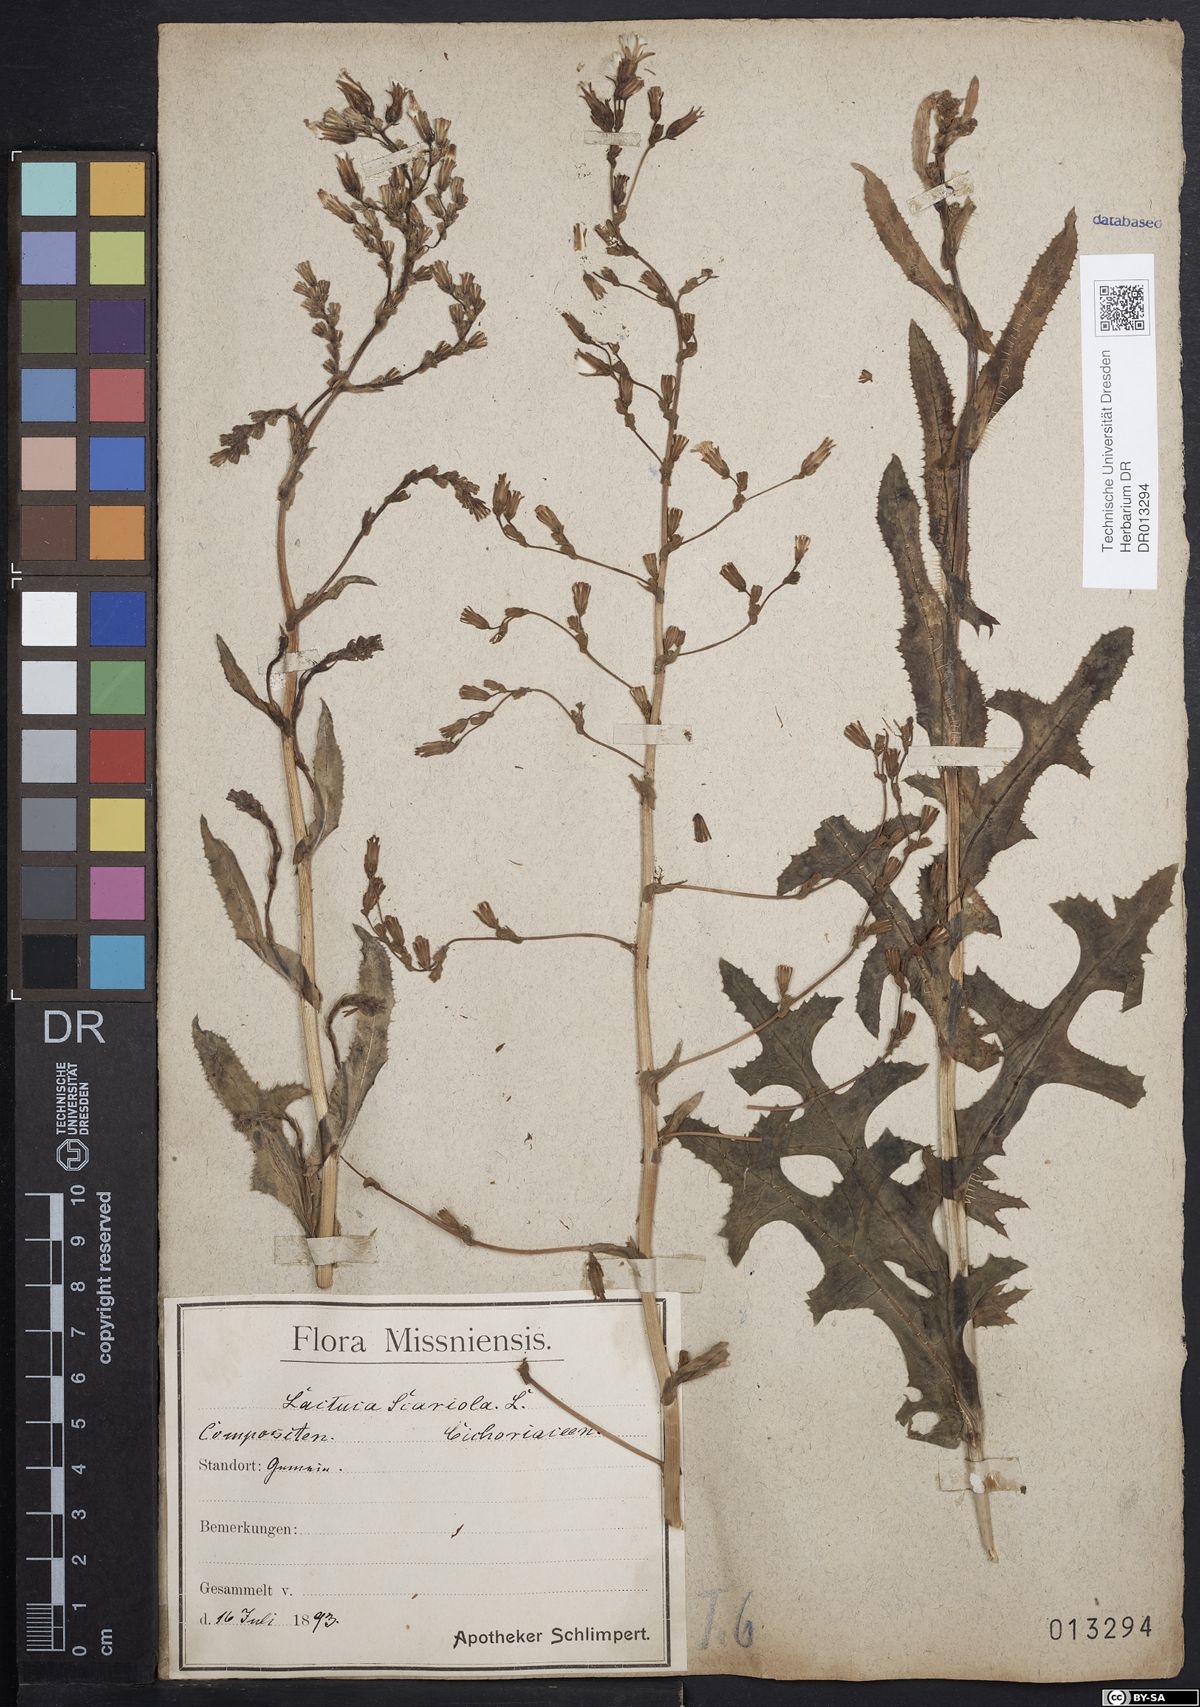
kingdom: Plantae
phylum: Tracheophyta
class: Magnoliopsida
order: Asterales
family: Asteraceae
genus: Lactuca
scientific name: Lactuca serriola
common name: Prickly lettuce
